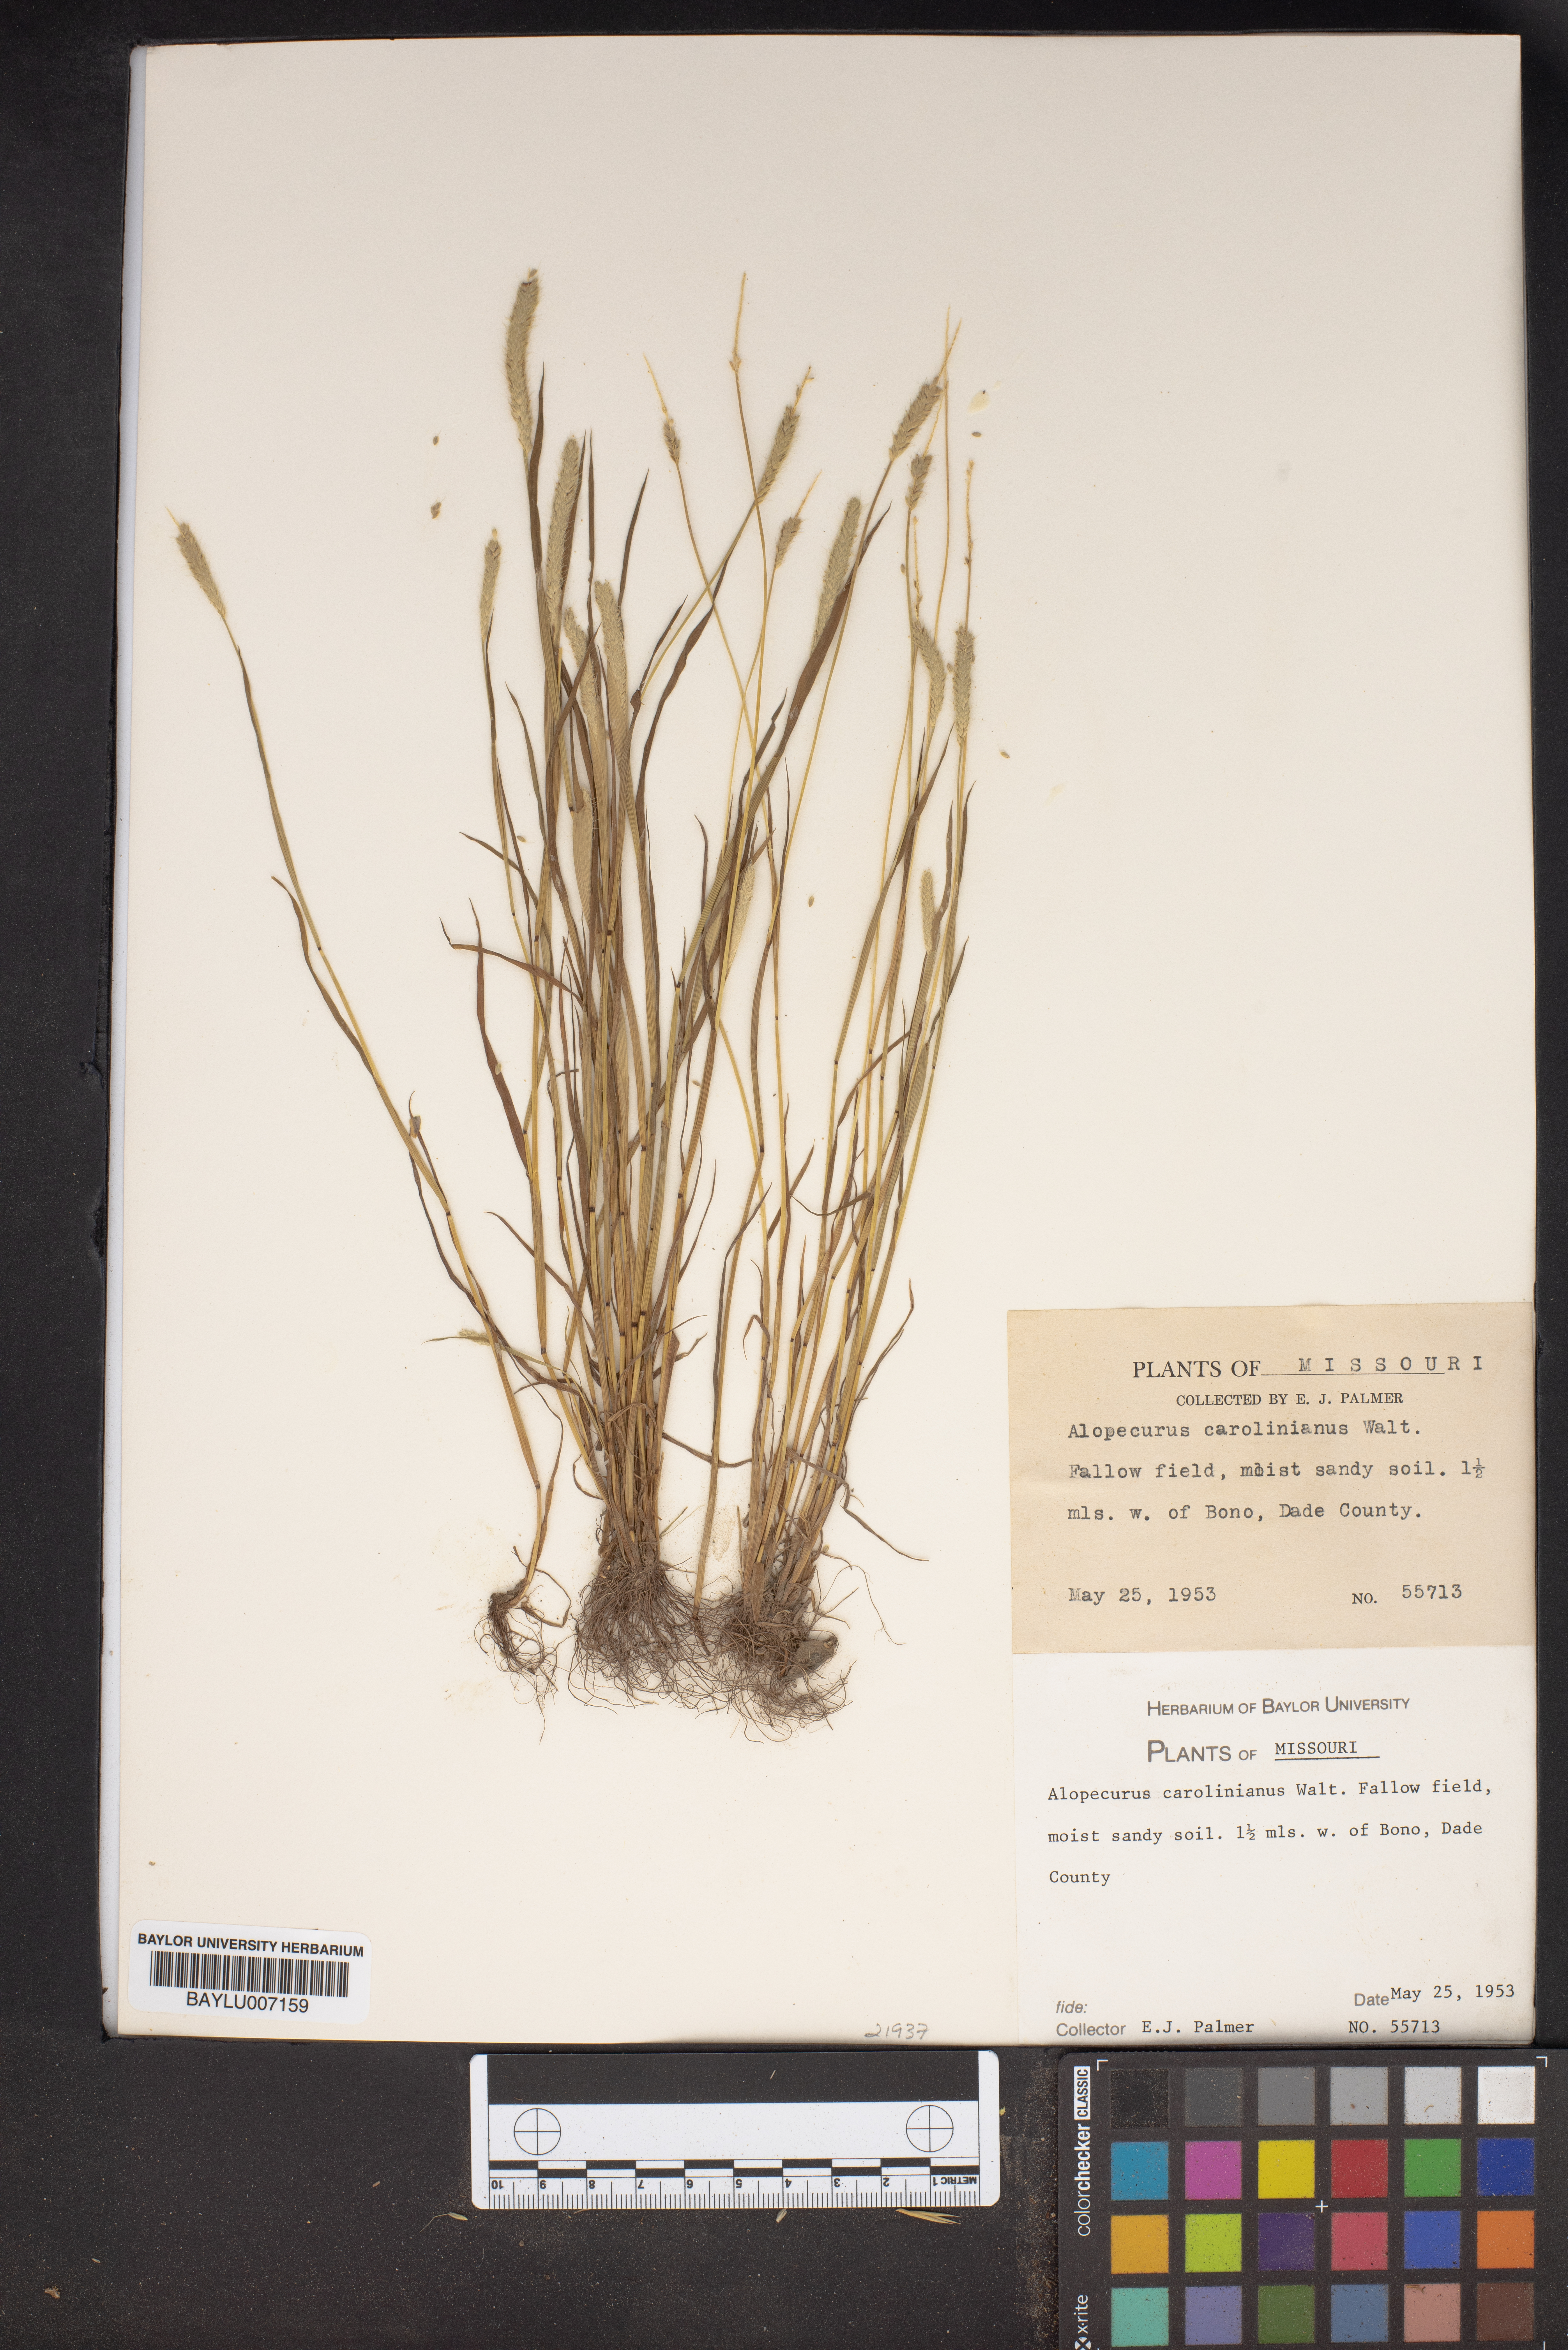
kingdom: Plantae
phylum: Tracheophyta
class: Liliopsida
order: Poales
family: Poaceae
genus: Alopecurus
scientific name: Alopecurus carolinianus
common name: Tufted foxtail
